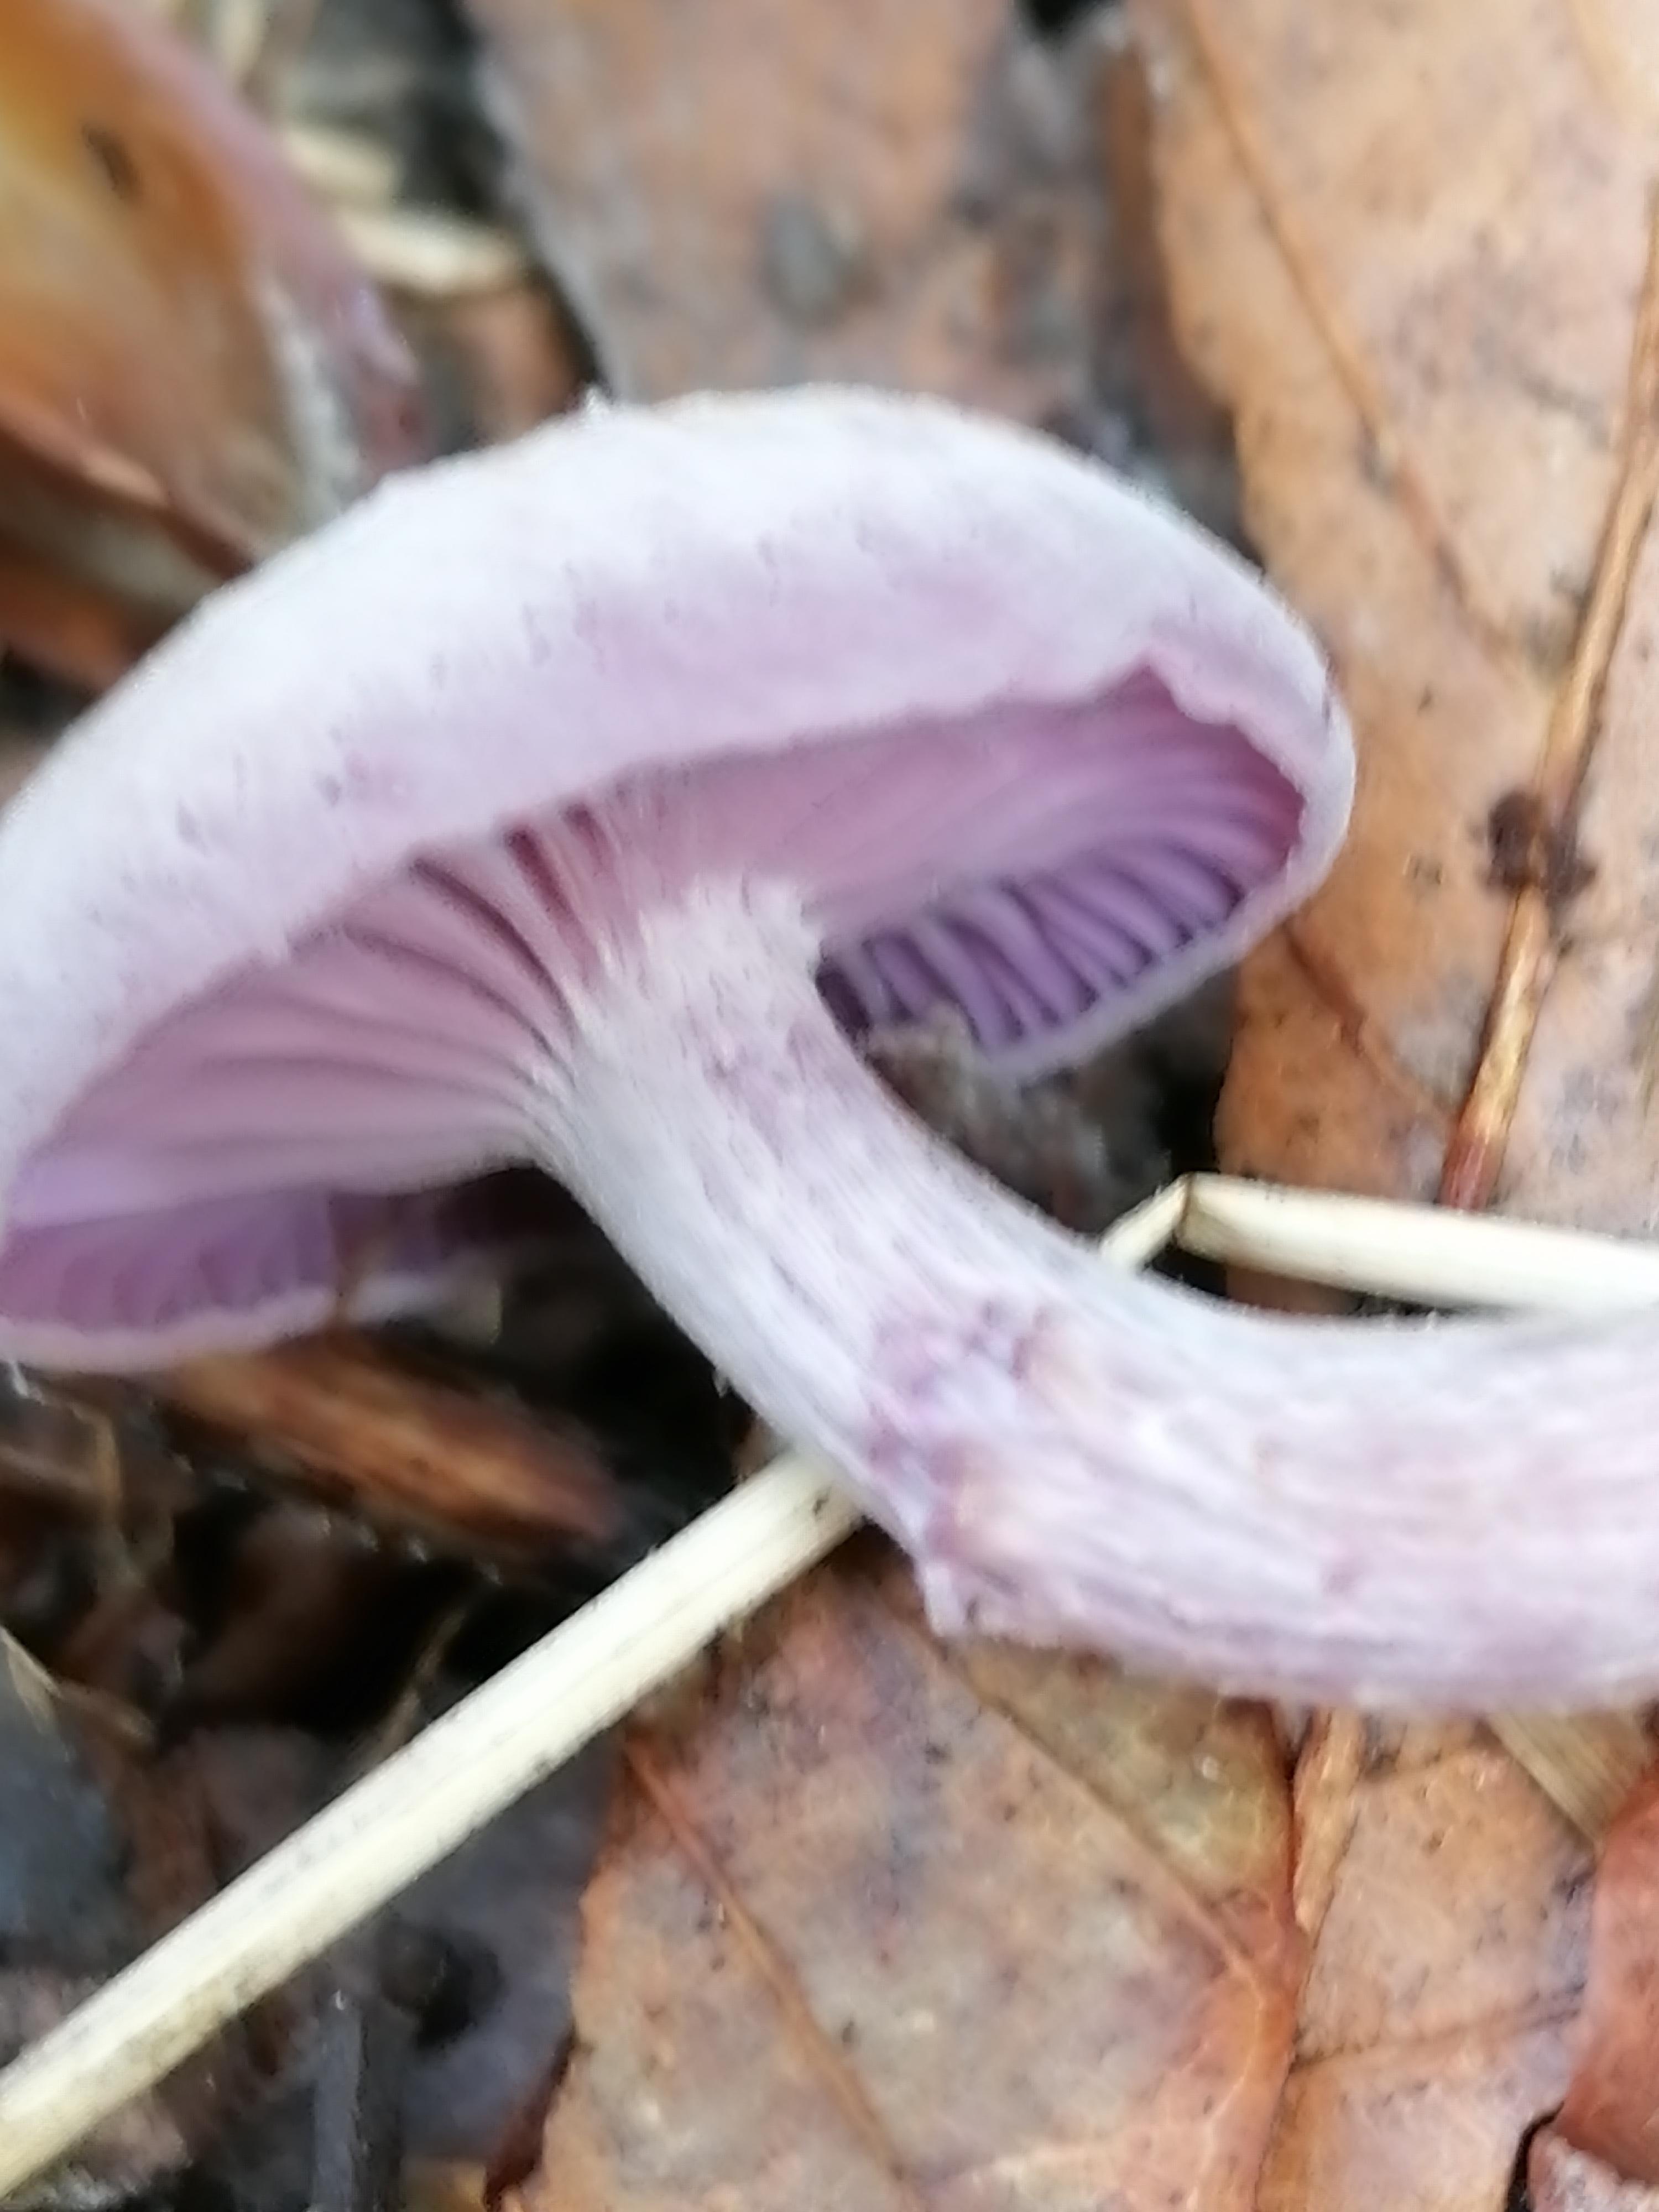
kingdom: Fungi
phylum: Basidiomycota
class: Agaricomycetes
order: Agaricales
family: Hydnangiaceae
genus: Laccaria
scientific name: Laccaria amethystina
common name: violet ametysthat
